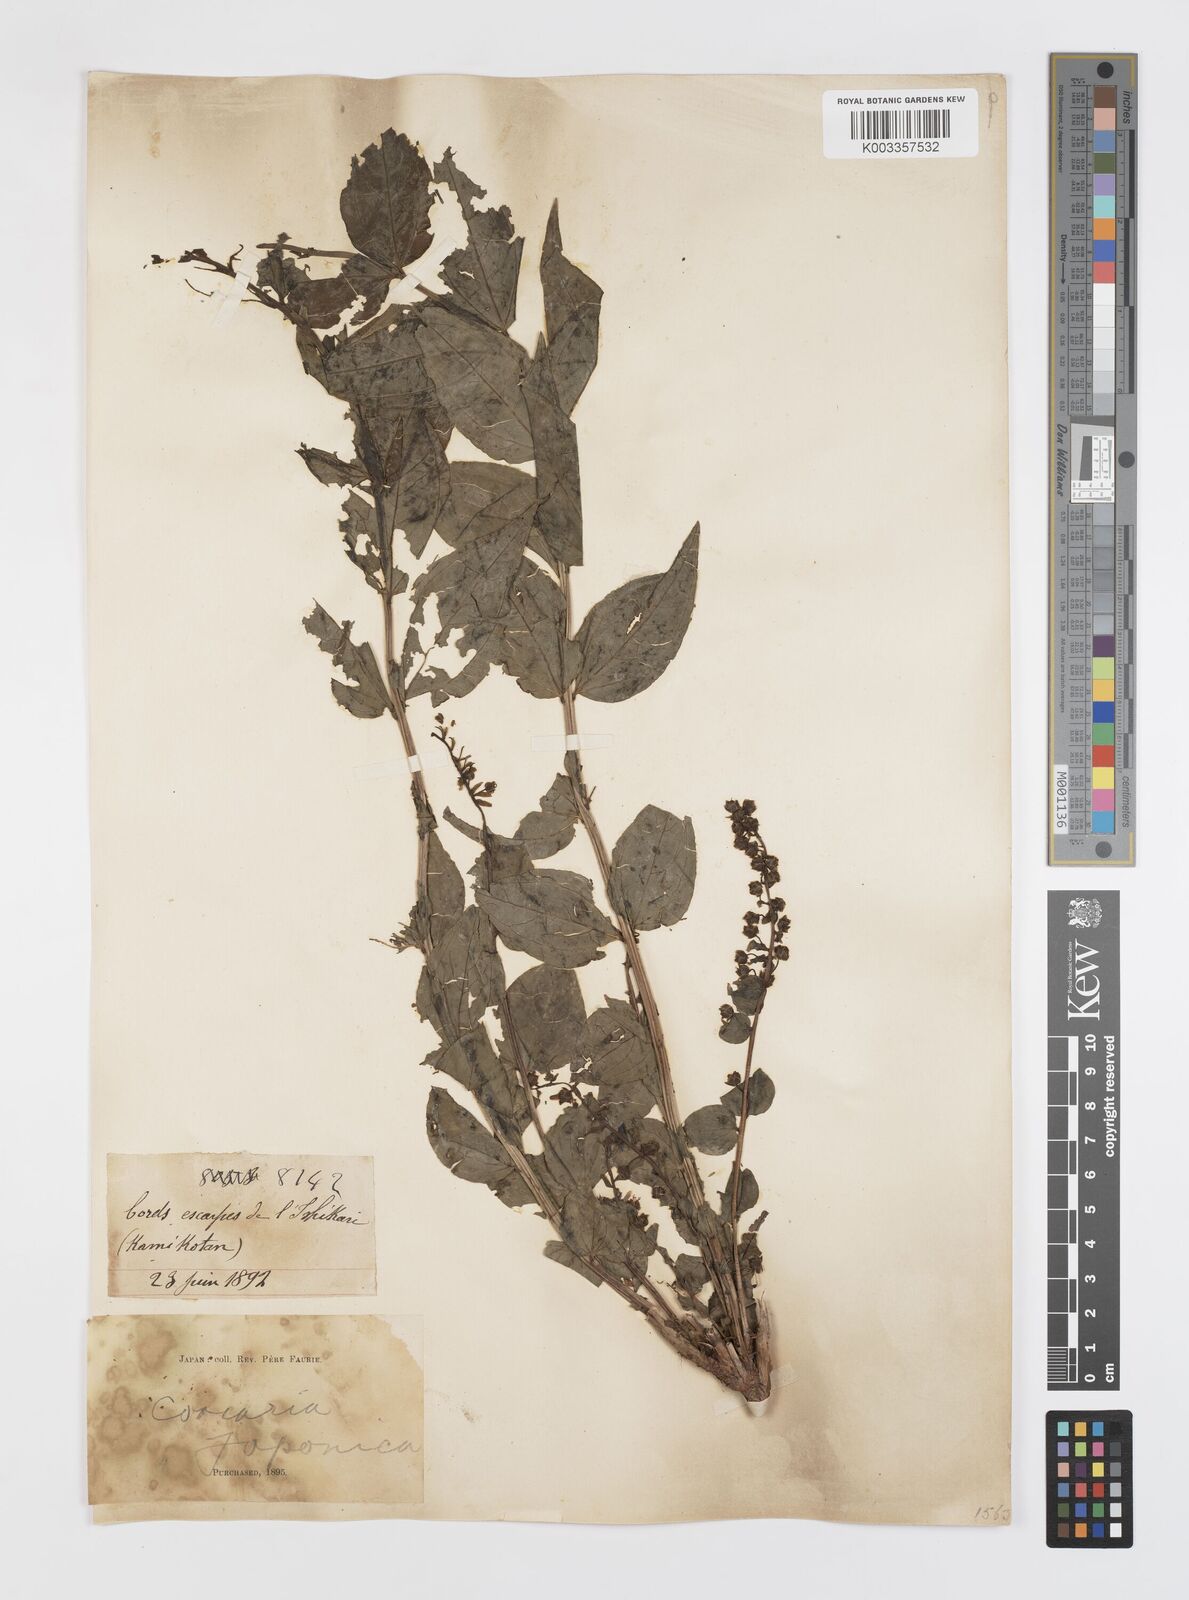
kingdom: Plantae
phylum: Tracheophyta
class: Magnoliopsida
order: Cucurbitales
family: Coriariaceae
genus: Coriaria
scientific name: Coriaria japonica
